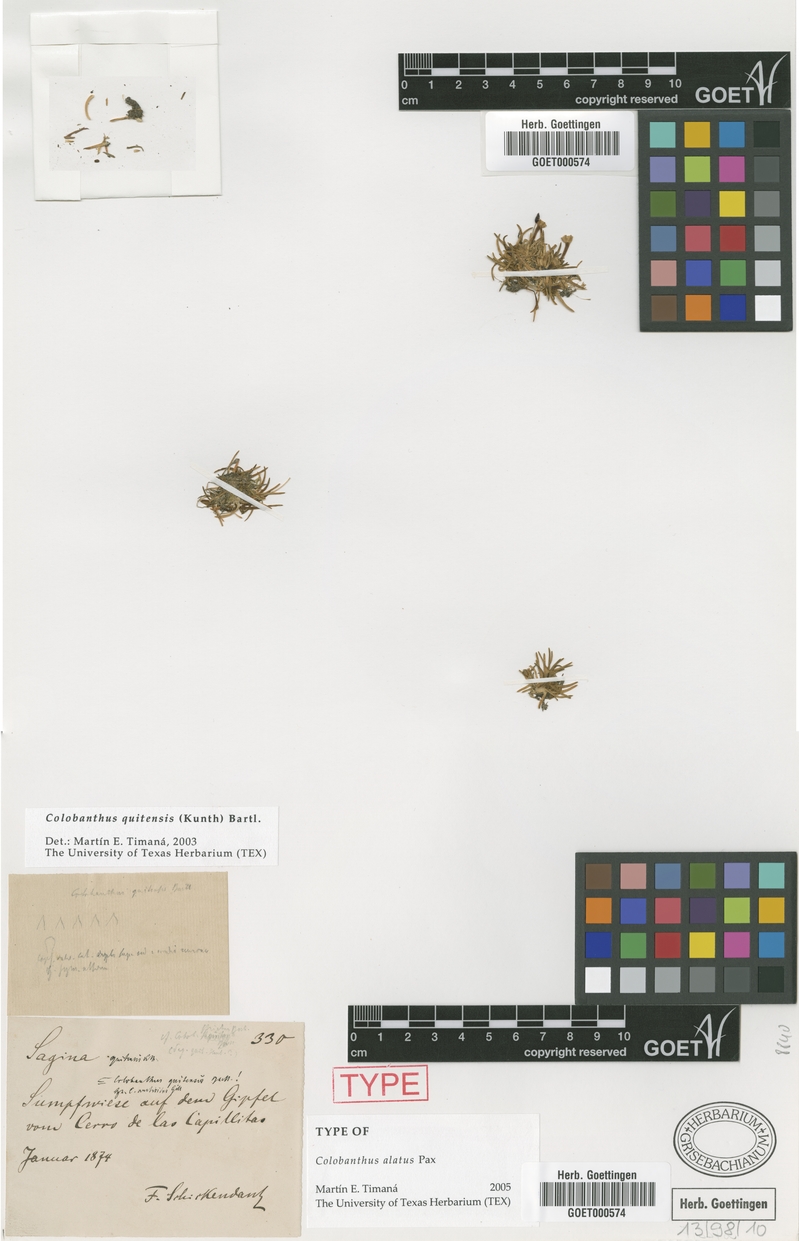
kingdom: Plantae
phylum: Tracheophyta
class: Magnoliopsida
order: Caryophyllales
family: Caryophyllaceae
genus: Colobanthus
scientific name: Colobanthus quitensis
